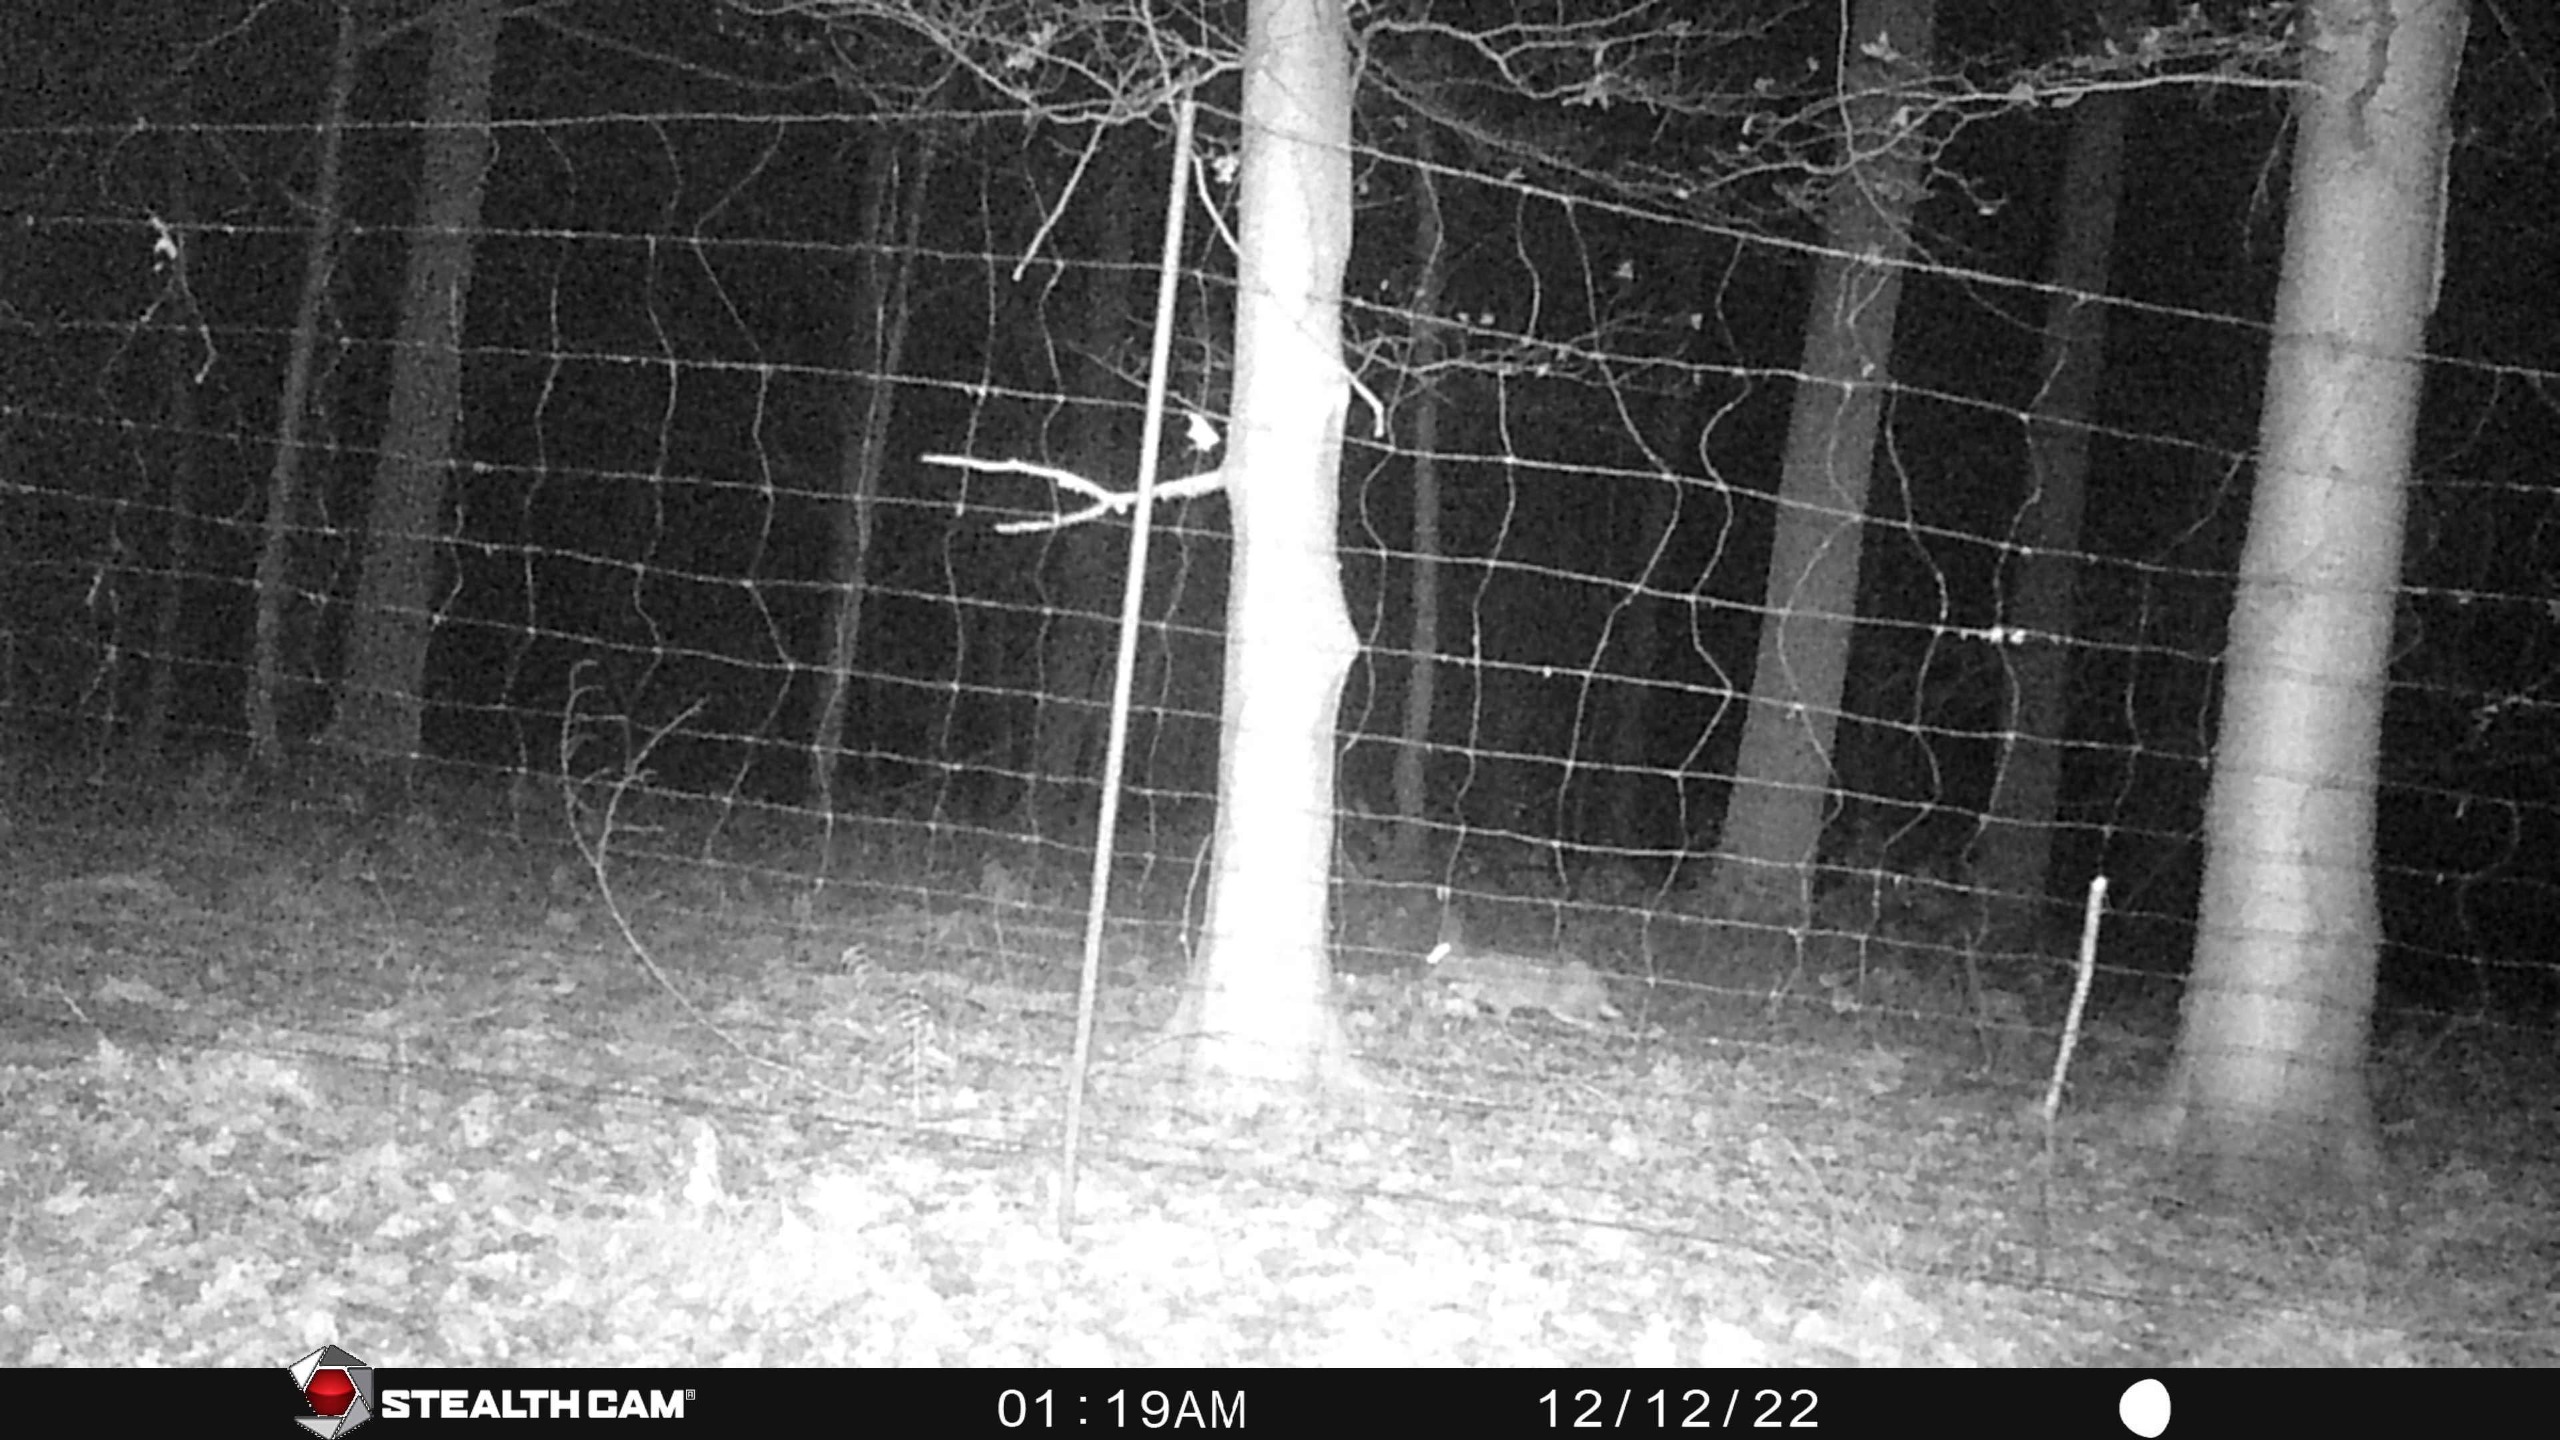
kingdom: Animalia
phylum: Chordata
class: Mammalia
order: Lagomorpha
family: Leporidae
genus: Lepus
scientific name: Lepus europaeus
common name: Hare
